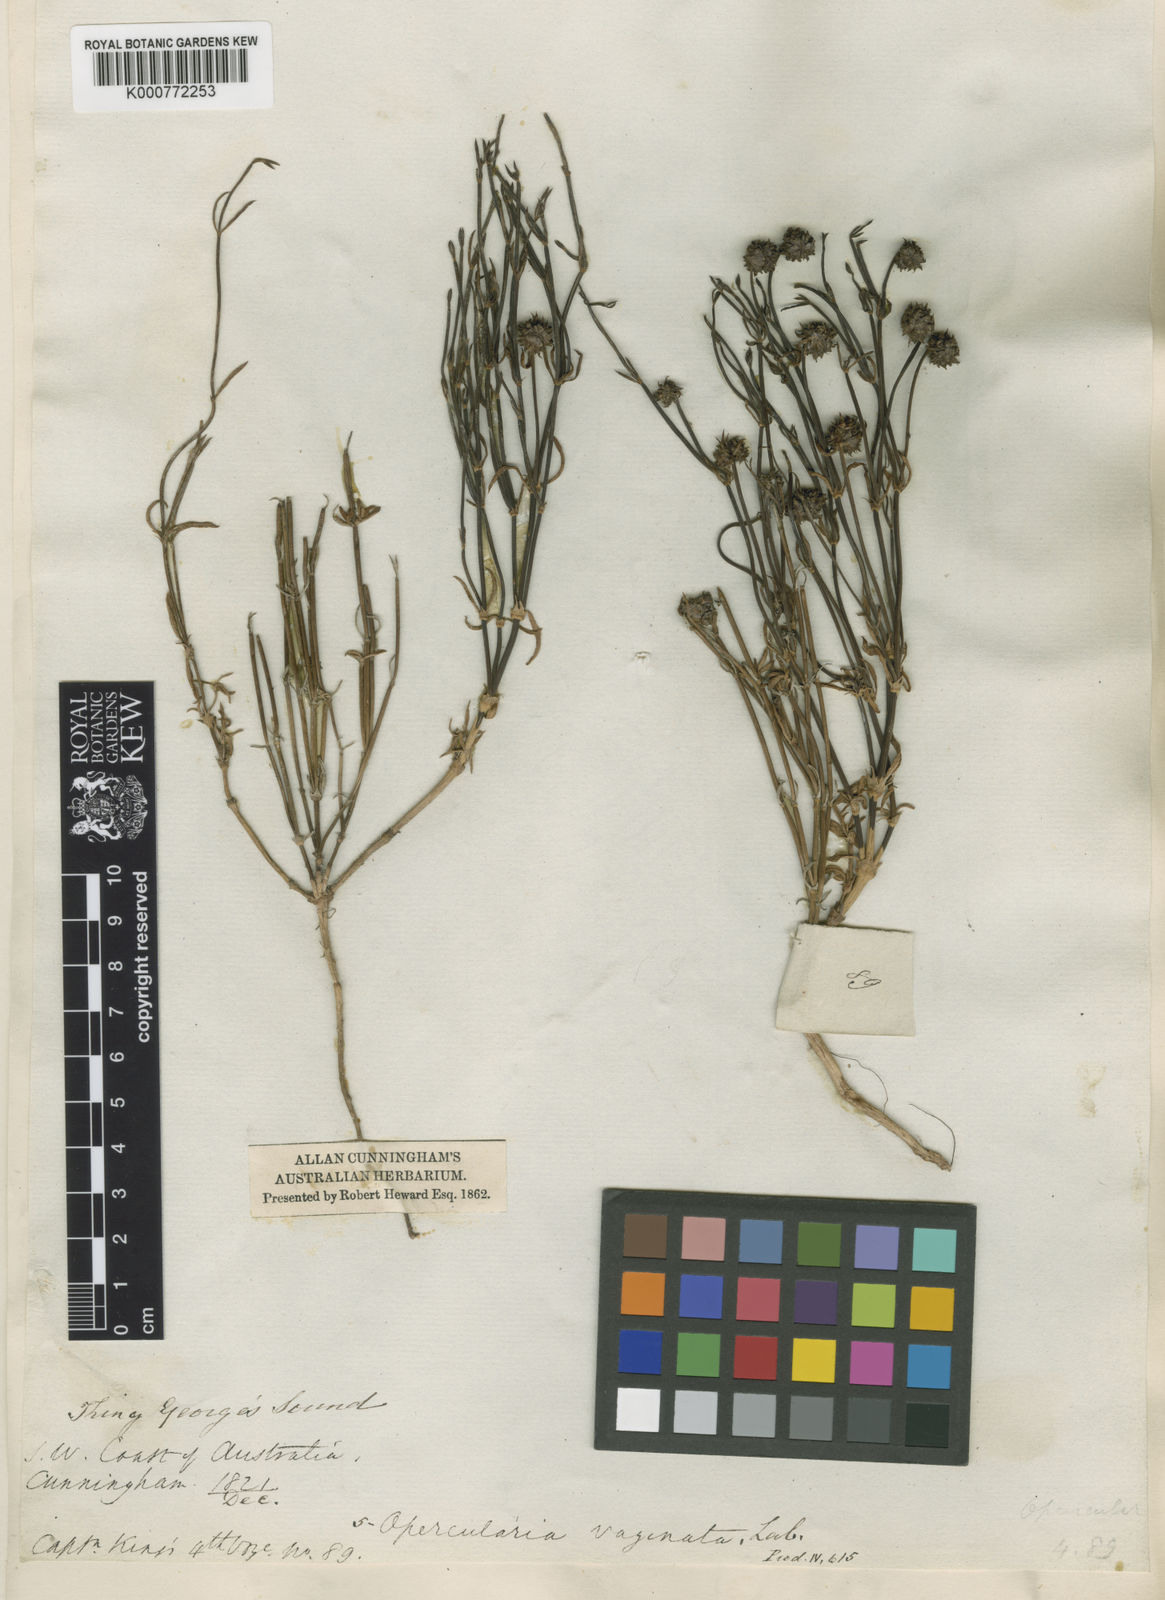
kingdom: Plantae
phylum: Tracheophyta
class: Magnoliopsida
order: Gentianales
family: Rubiaceae
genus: Opercularia
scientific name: Opercularia vaginata
